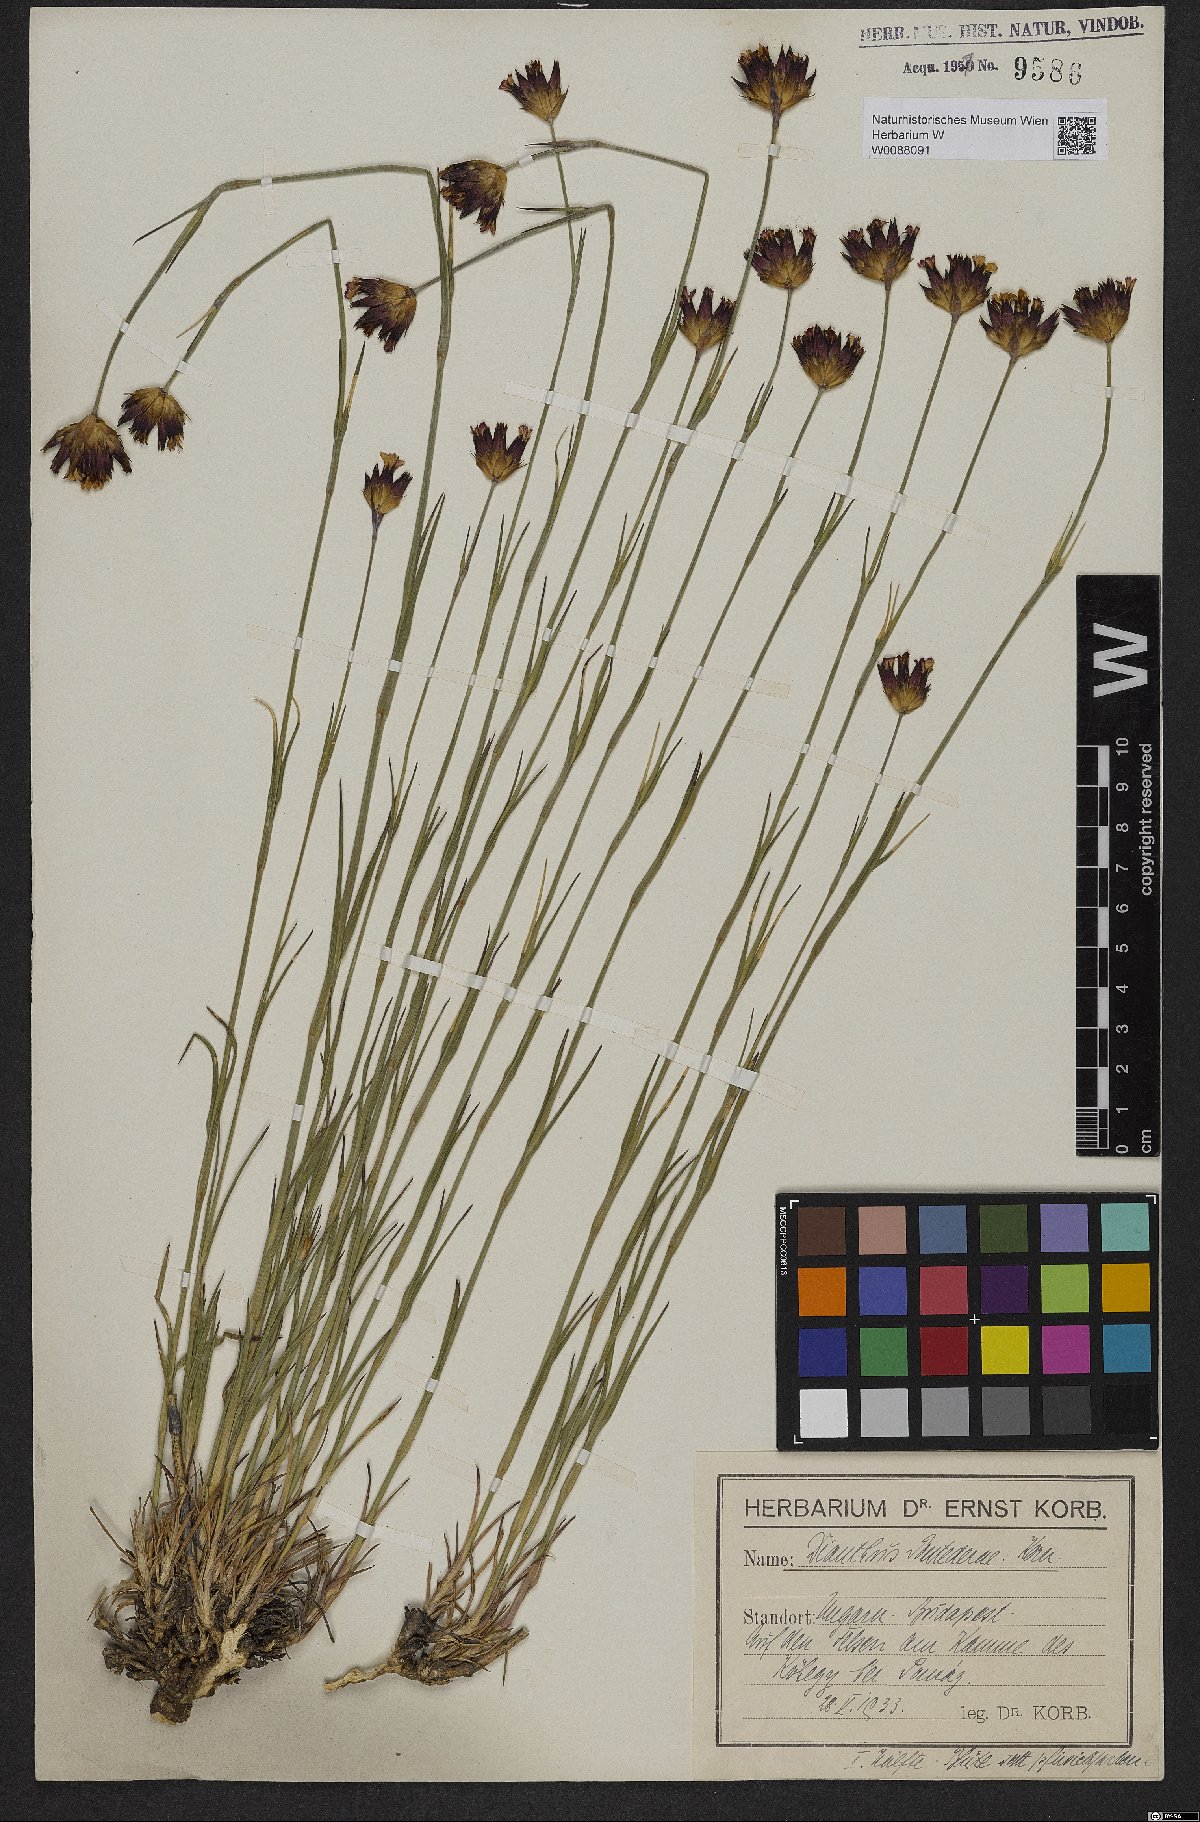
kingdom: Plantae
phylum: Tracheophyta
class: Magnoliopsida
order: Caryophyllales
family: Caryophyllaceae
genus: Dianthus
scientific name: Dianthus pontederae
